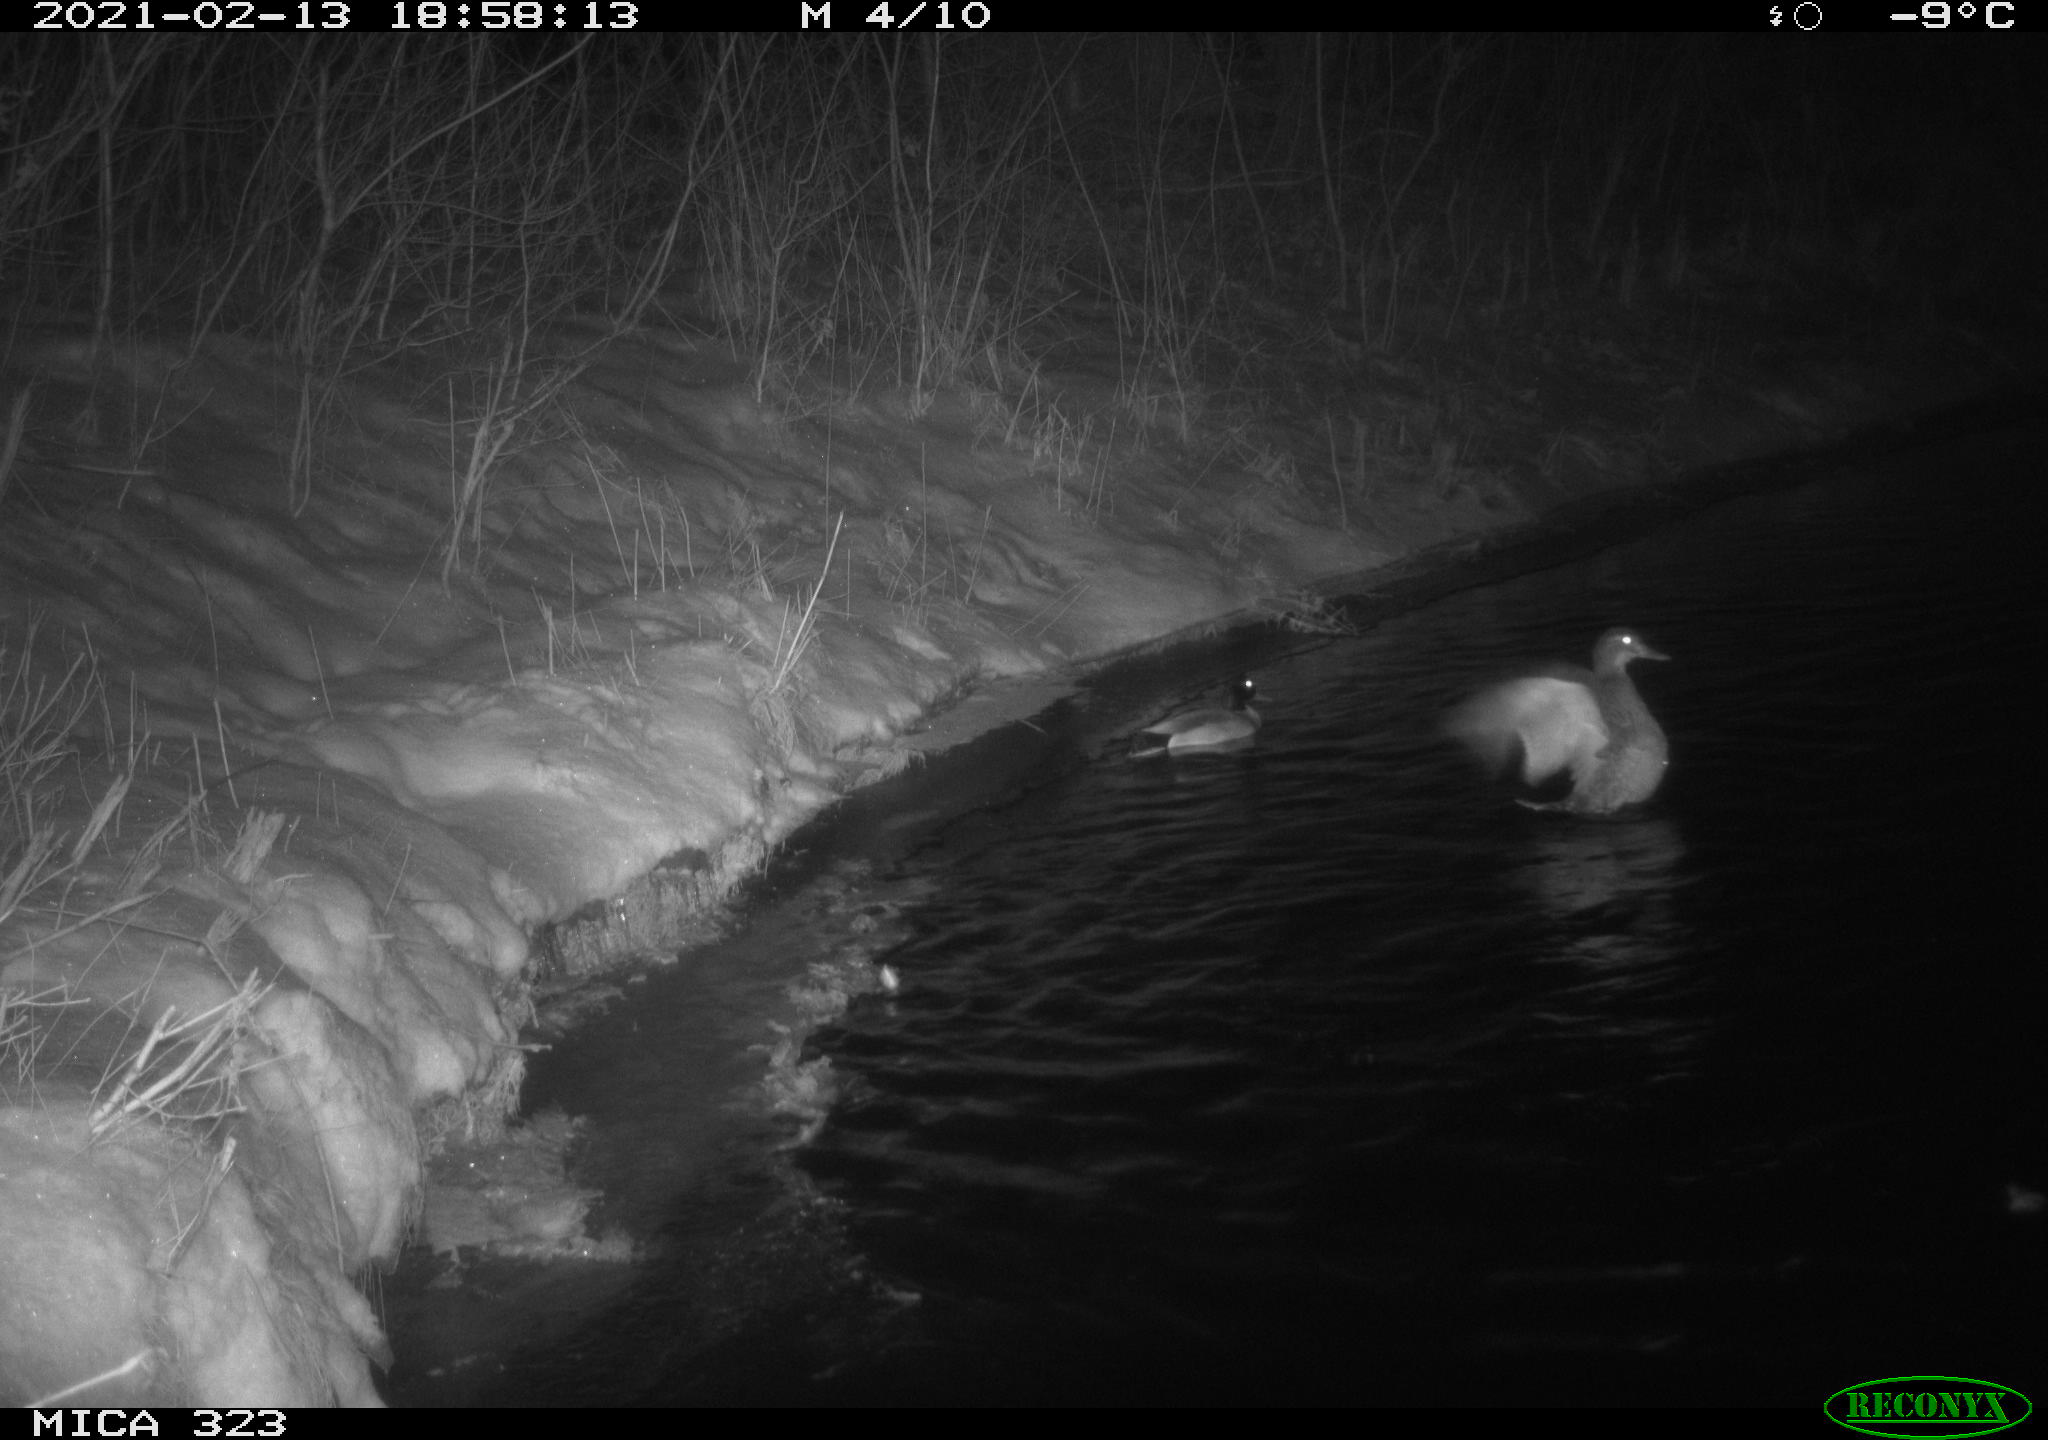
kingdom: Animalia
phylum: Chordata
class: Aves
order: Anseriformes
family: Anatidae
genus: Anas
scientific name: Anas platyrhynchos
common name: Mallard
